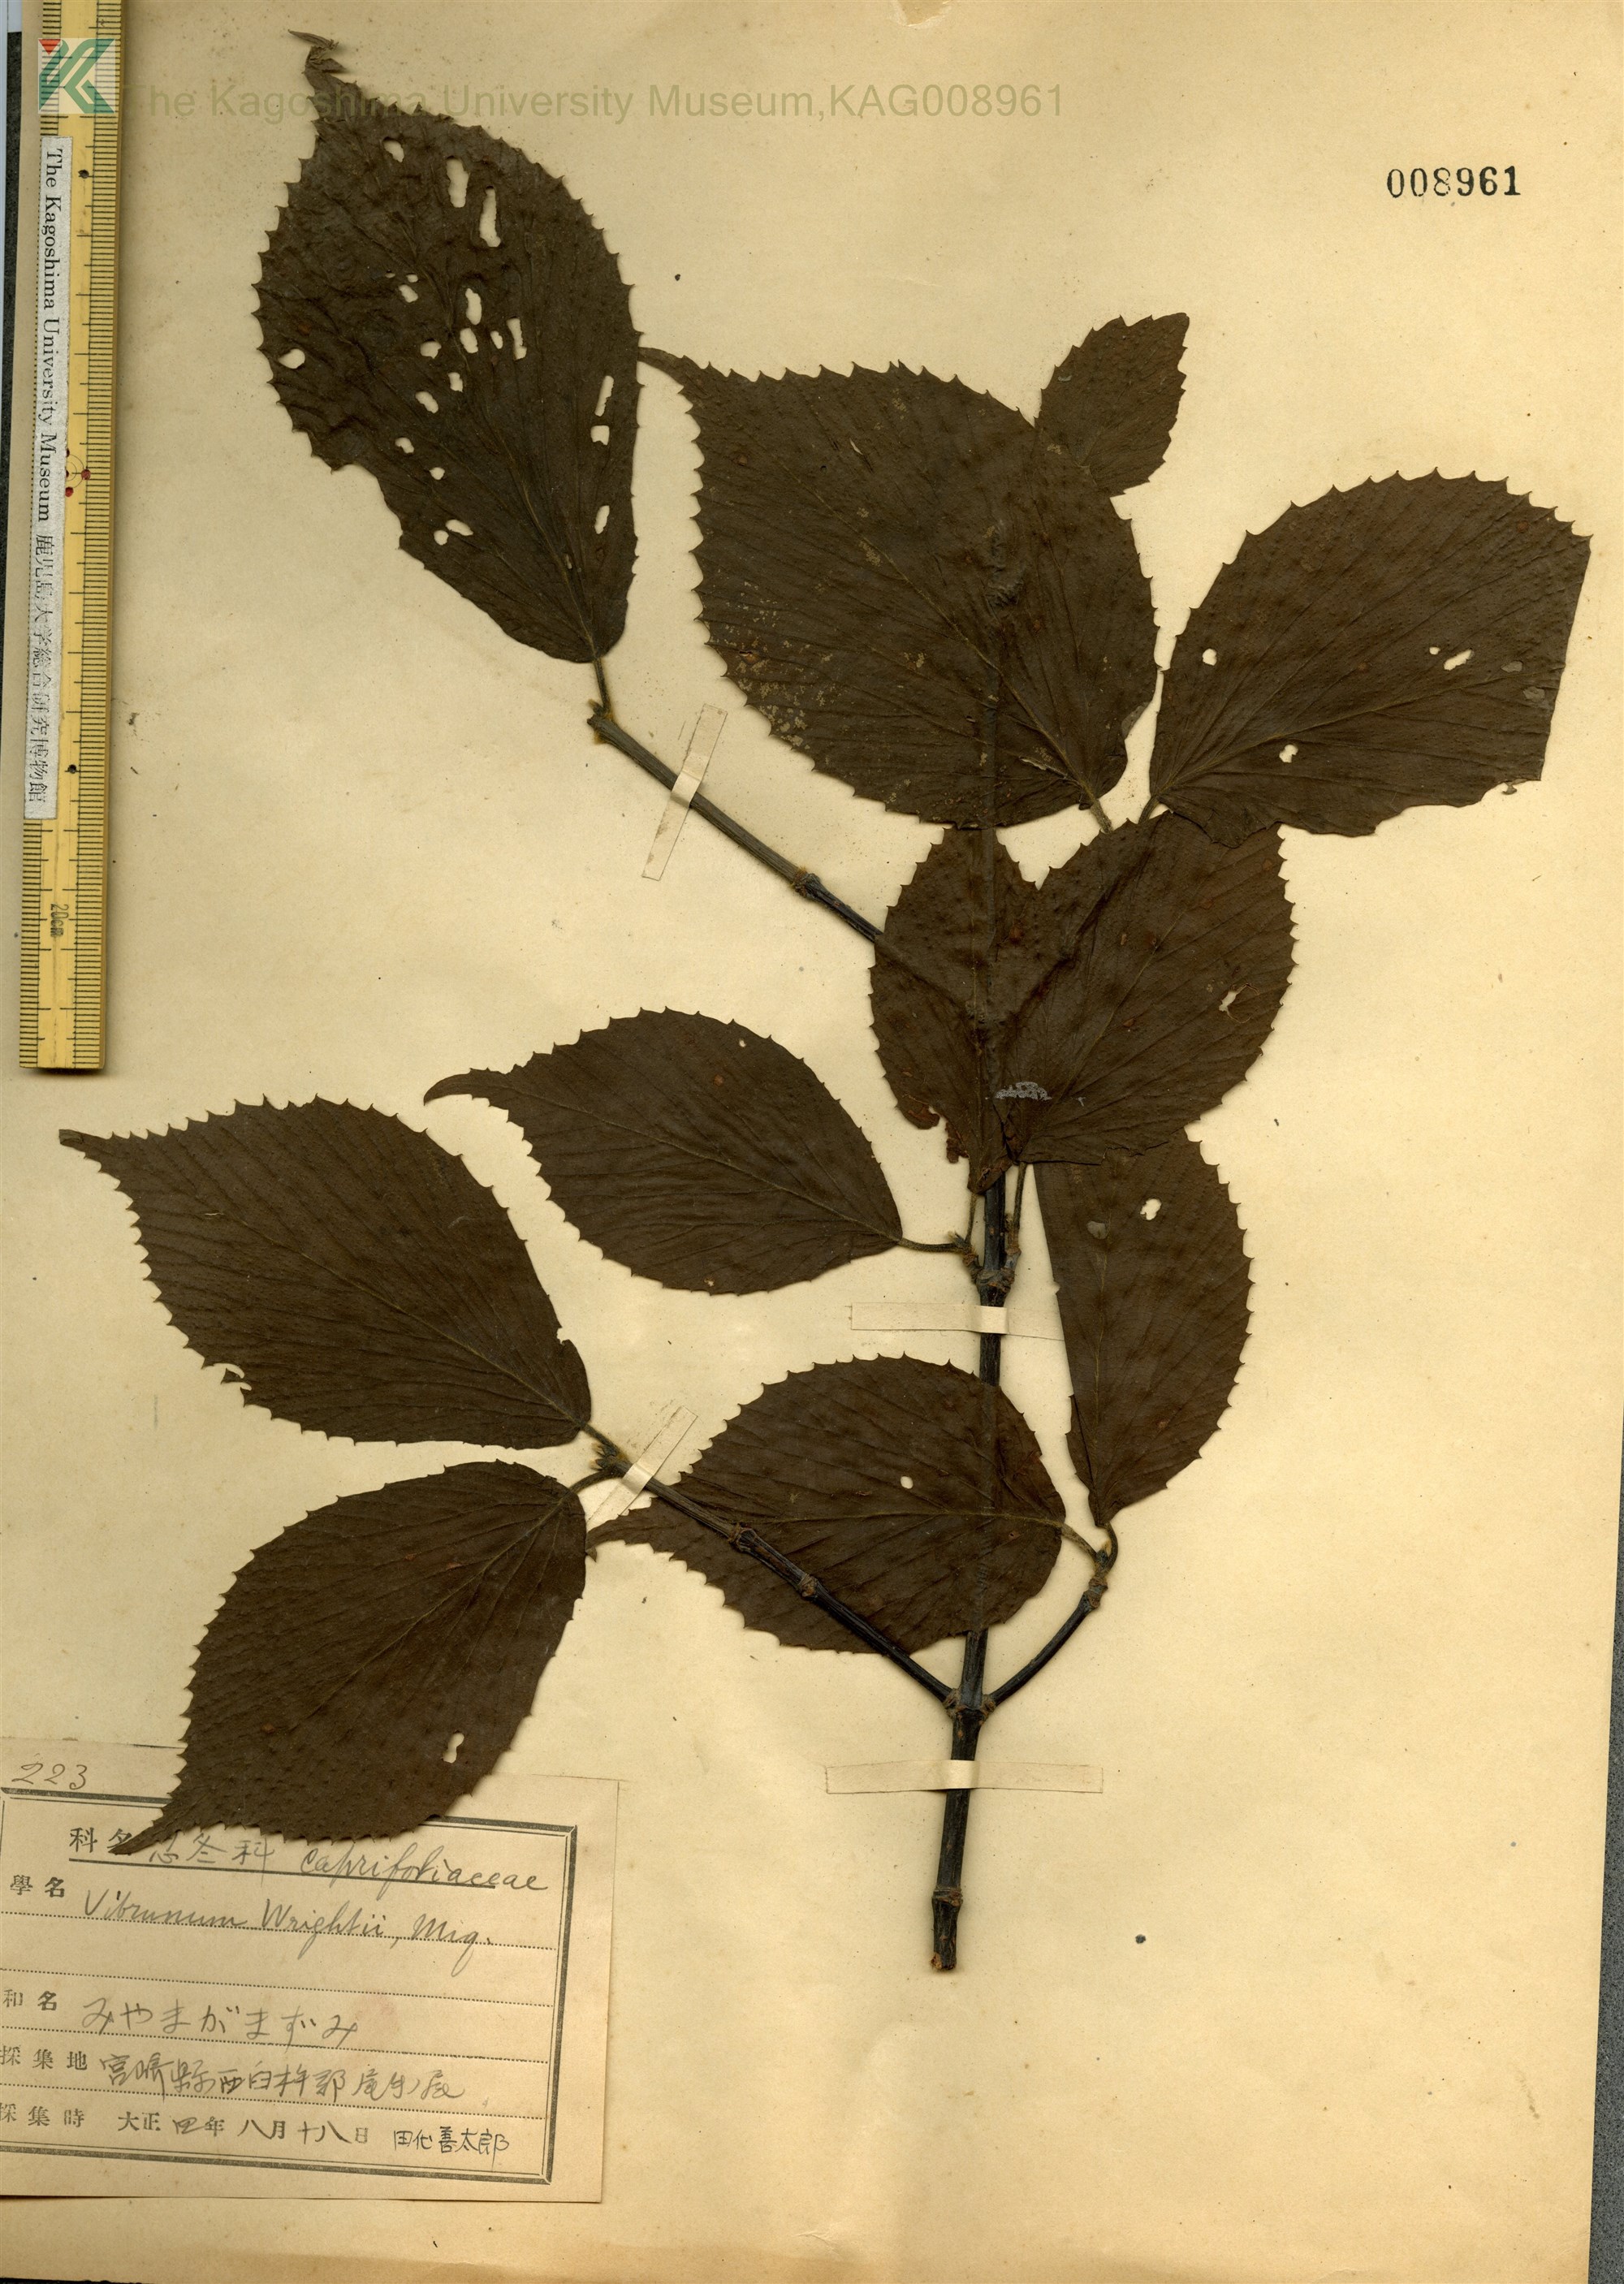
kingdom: Plantae
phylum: Tracheophyta
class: Magnoliopsida
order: Dipsacales
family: Viburnaceae
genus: Viburnum
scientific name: Viburnum wrightii
